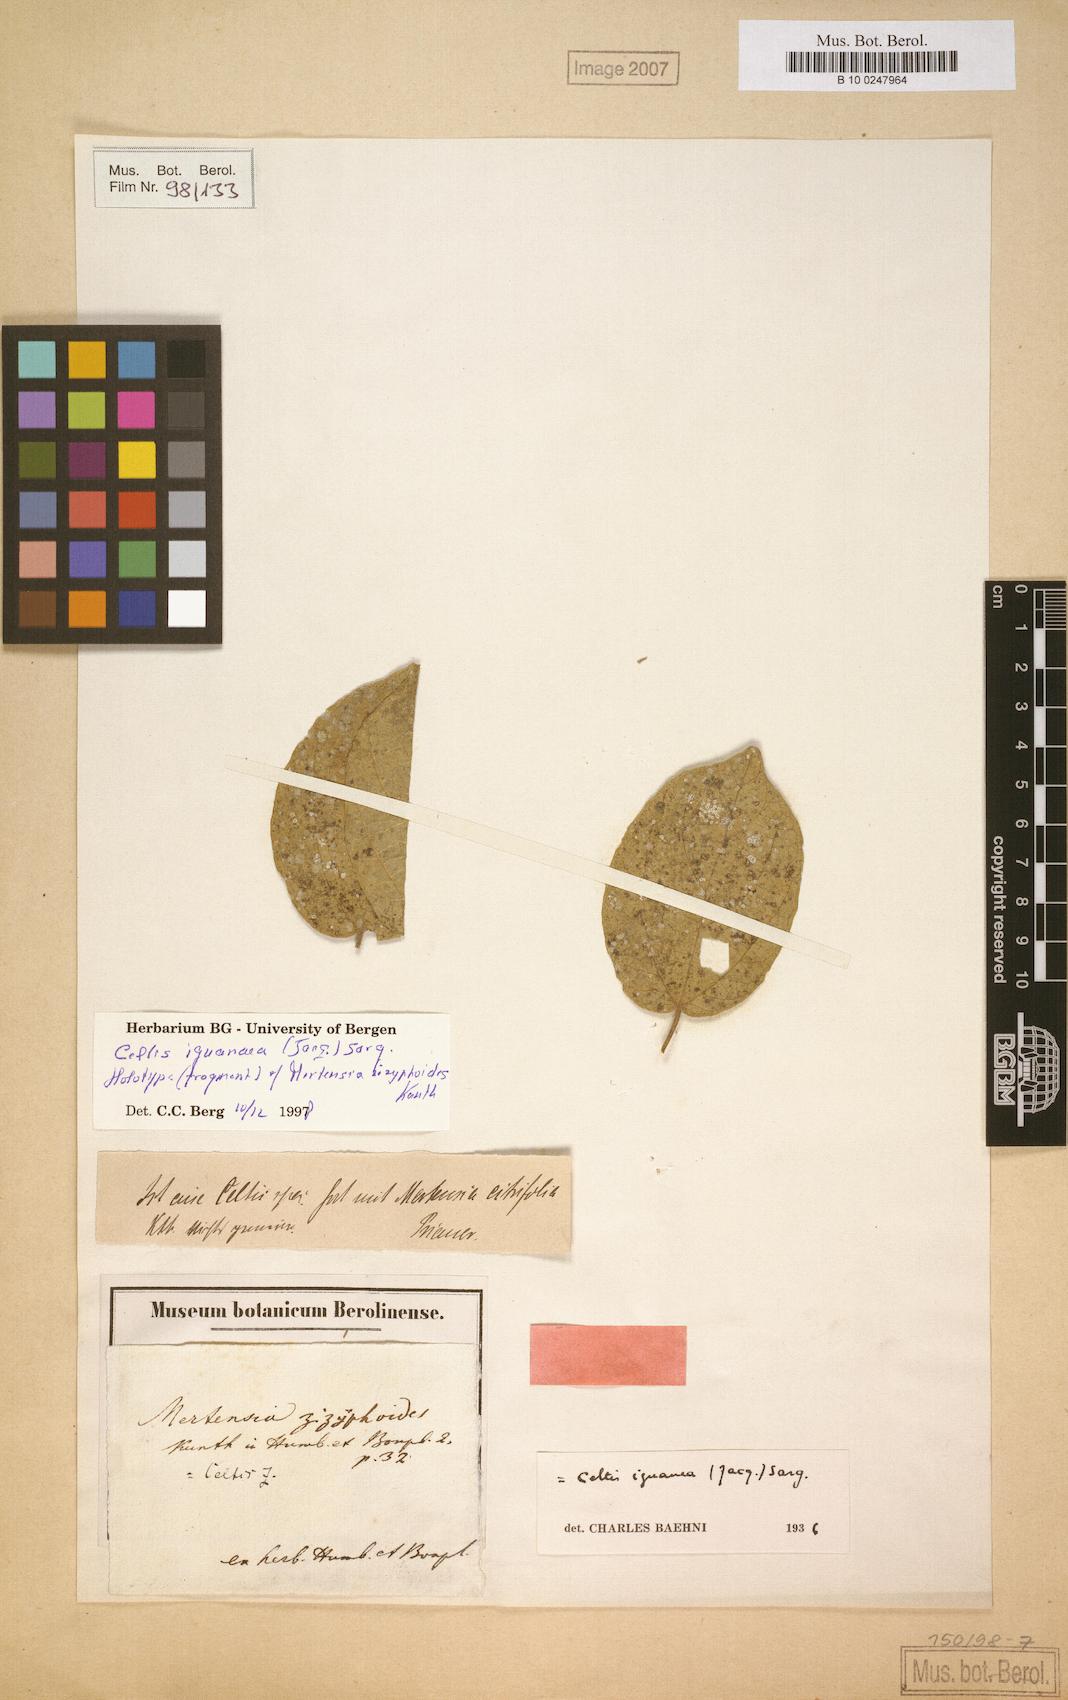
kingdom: Plantae
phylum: Tracheophyta
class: Magnoliopsida
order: Rosales
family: Cannabaceae
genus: Celtis
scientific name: Celtis iguanaea
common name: Iguana hackberry
